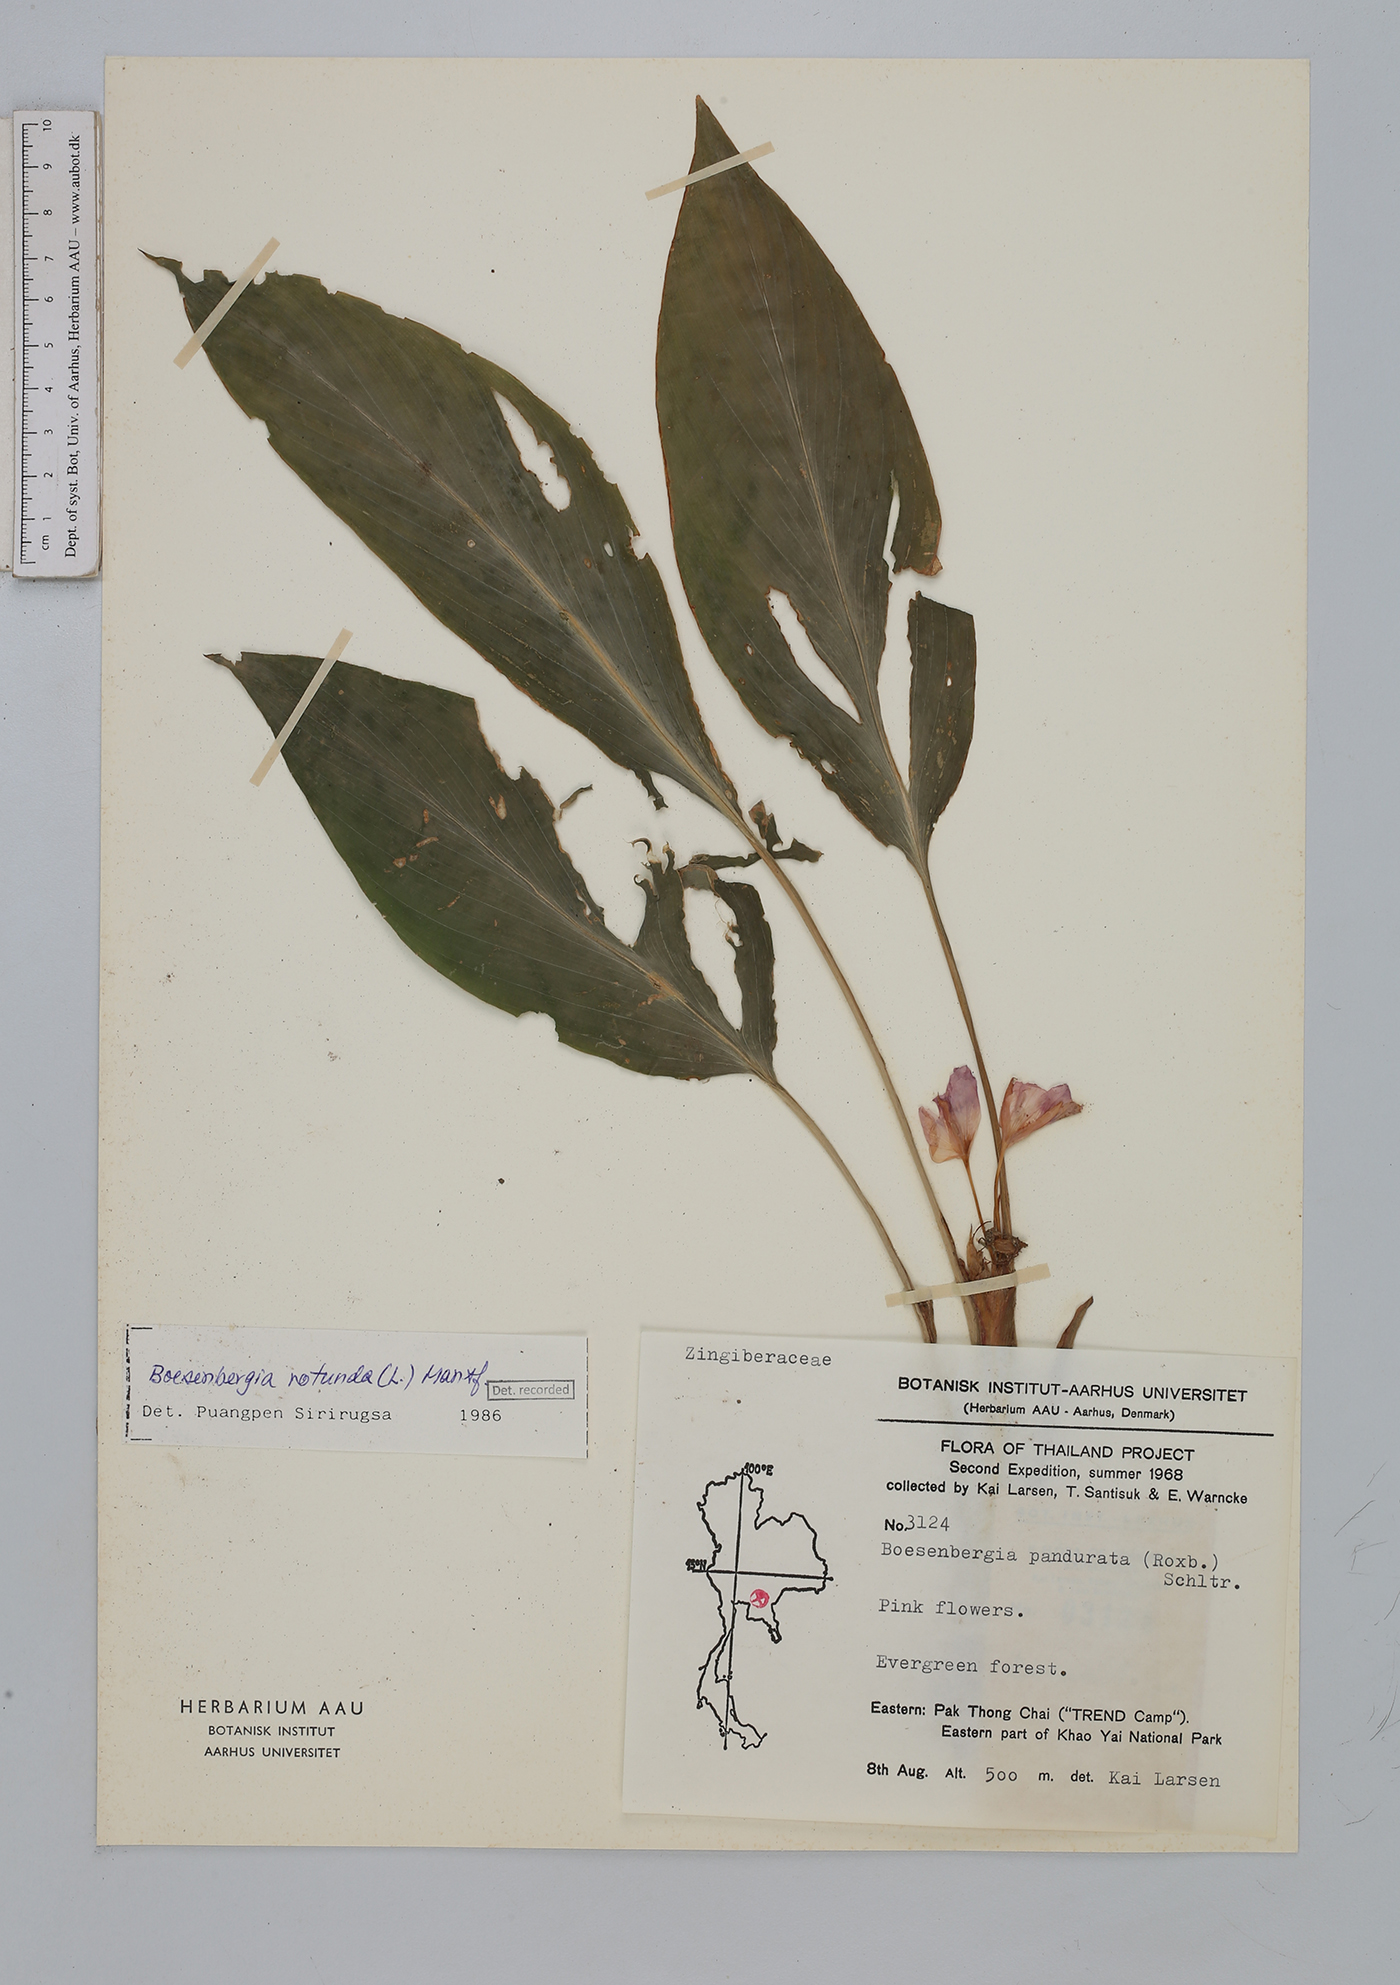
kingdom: Plantae
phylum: Tracheophyta
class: Liliopsida
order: Zingiberales
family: Zingiberaceae
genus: Boesenbergia
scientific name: Boesenbergia rotunda
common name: Chinese ginger
